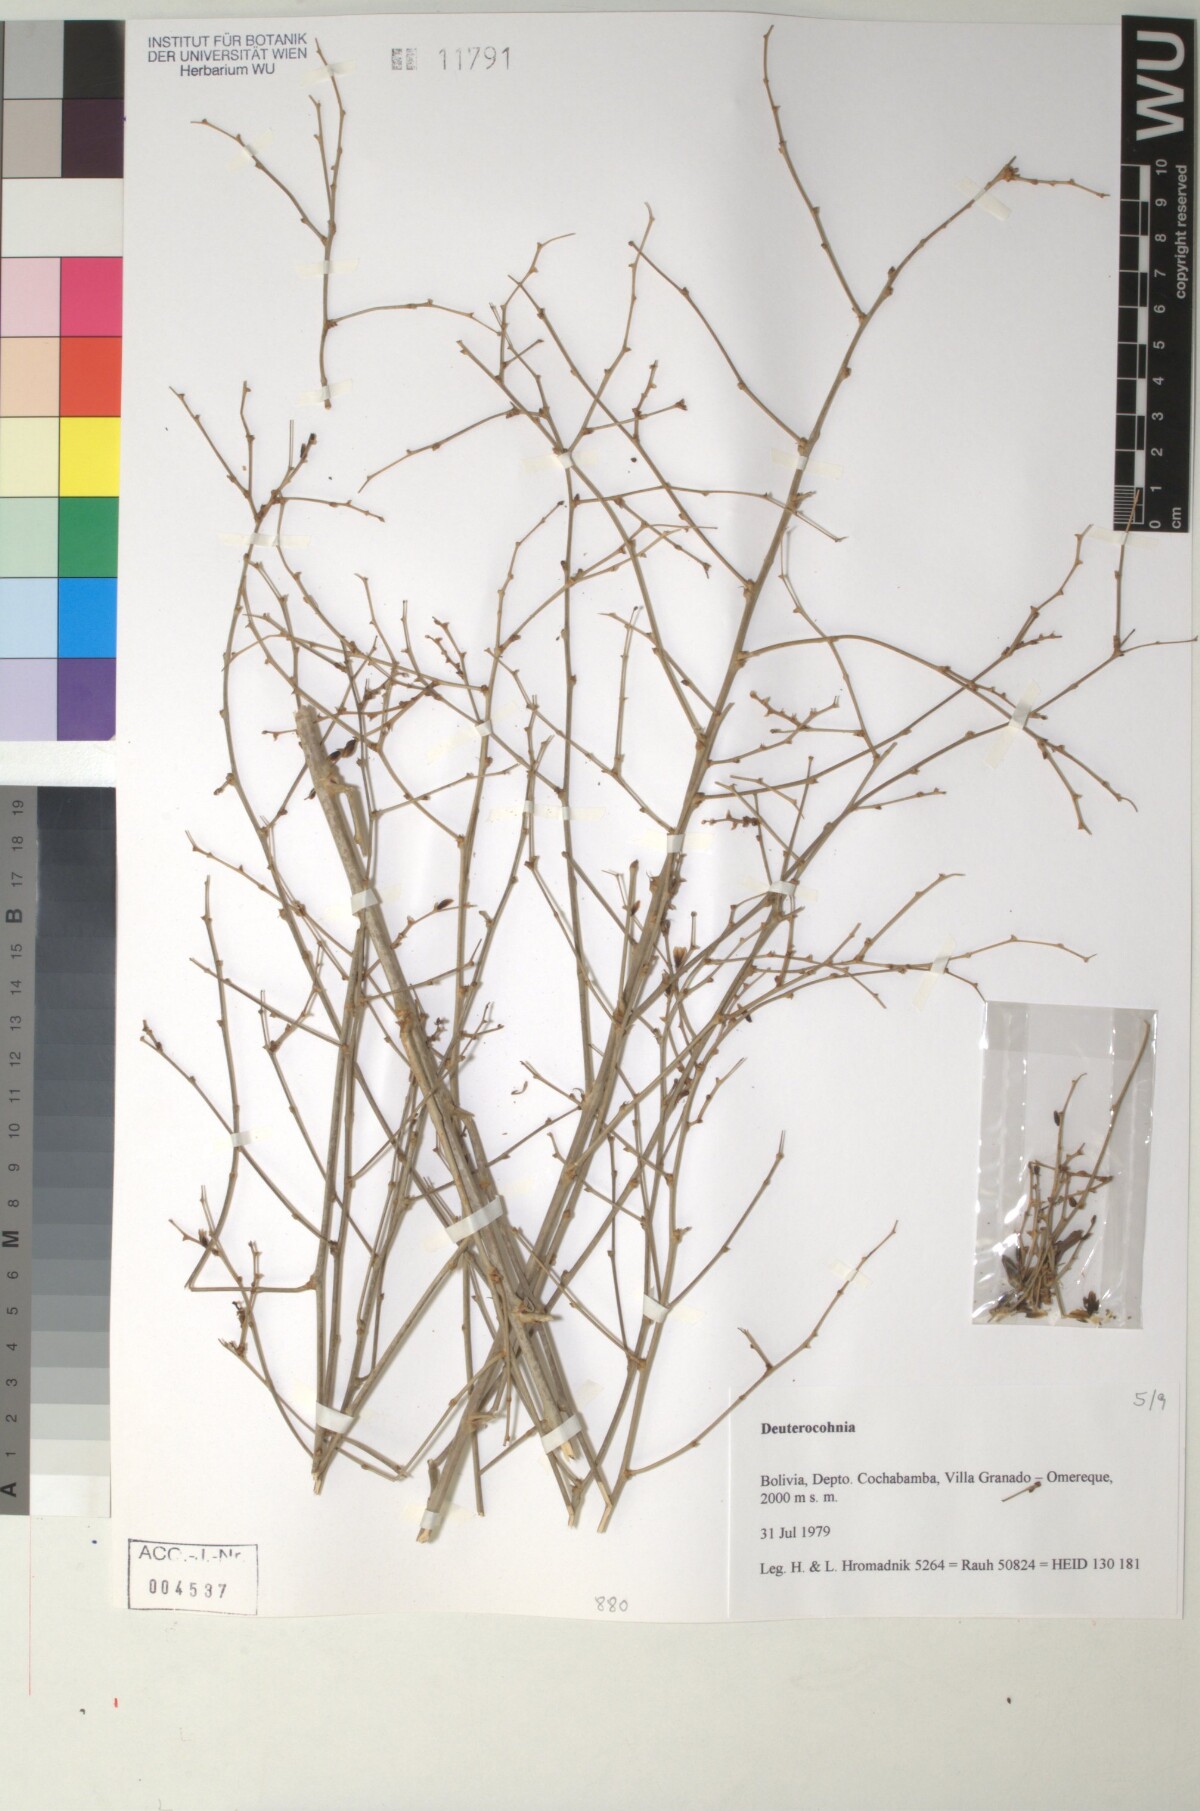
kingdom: Plantae
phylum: Tracheophyta
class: Liliopsida
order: Poales
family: Bromeliaceae
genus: Deuterocohnia
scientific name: Deuterocohnia meziana
